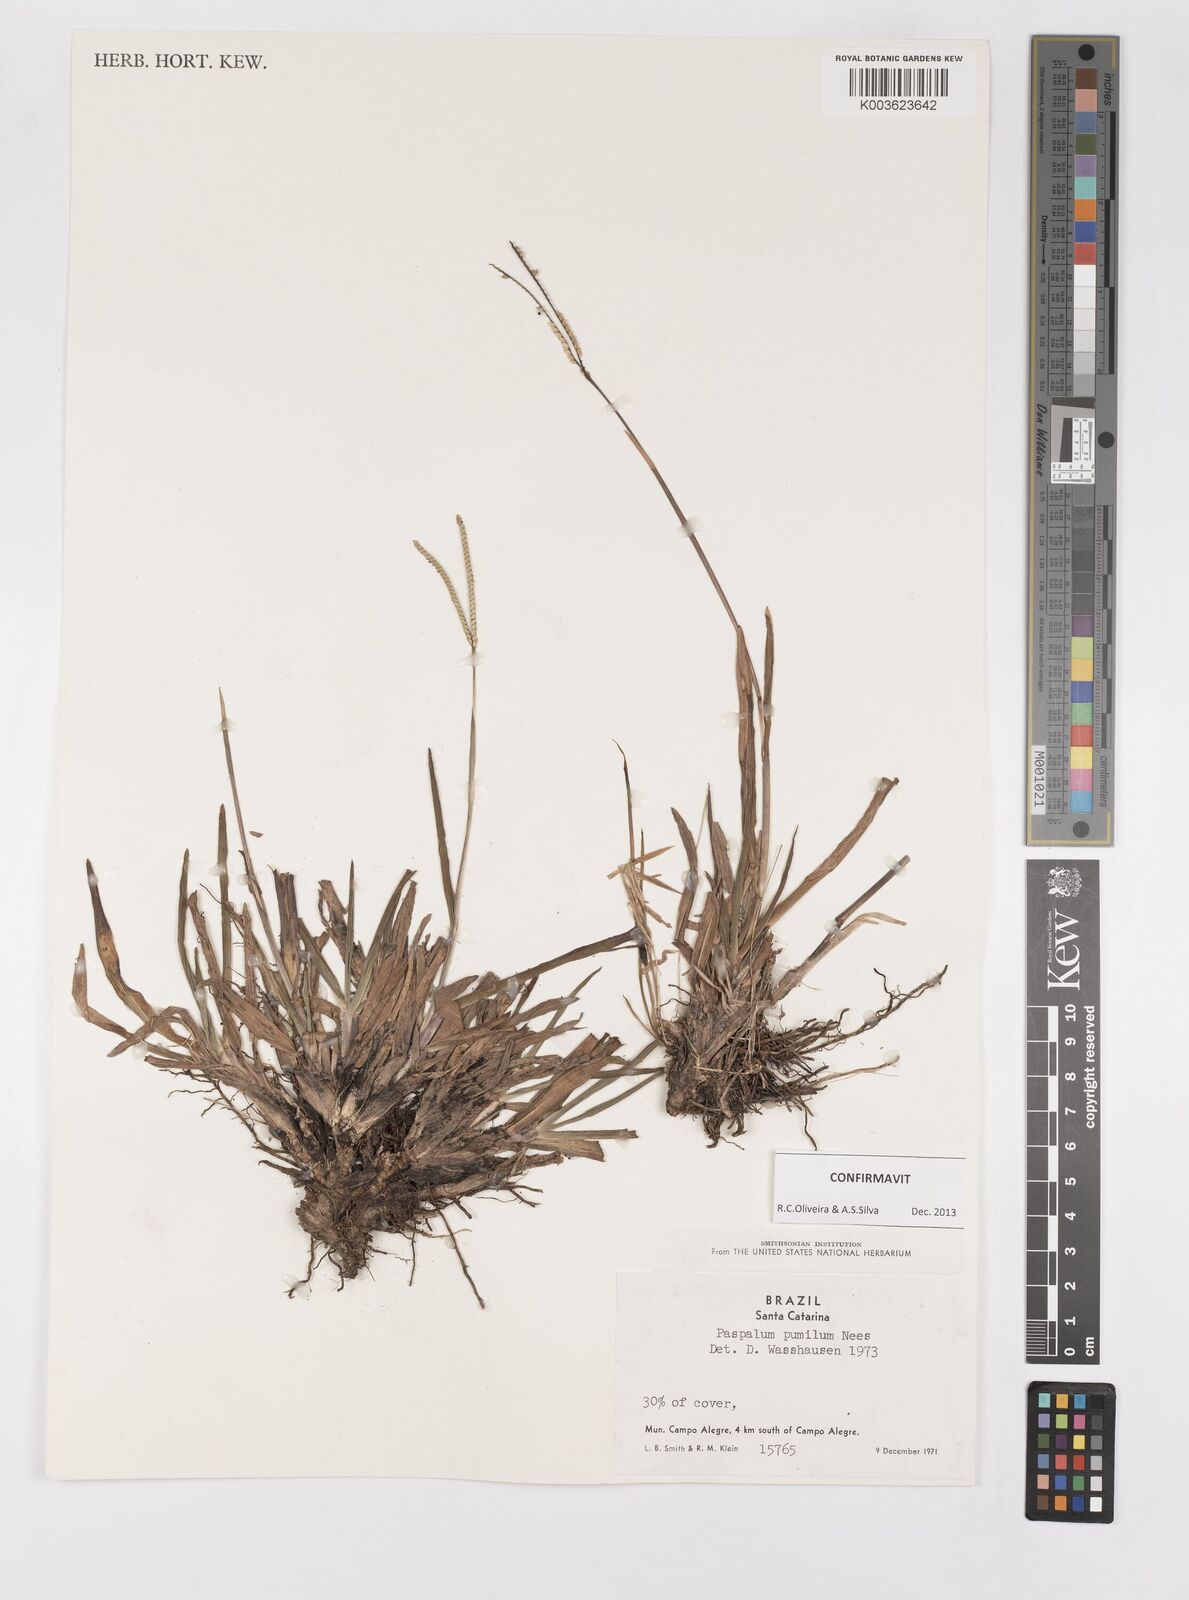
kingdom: Plantae
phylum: Tracheophyta
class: Liliopsida
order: Poales
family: Poaceae
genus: Paspalum
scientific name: Paspalum pumilum
